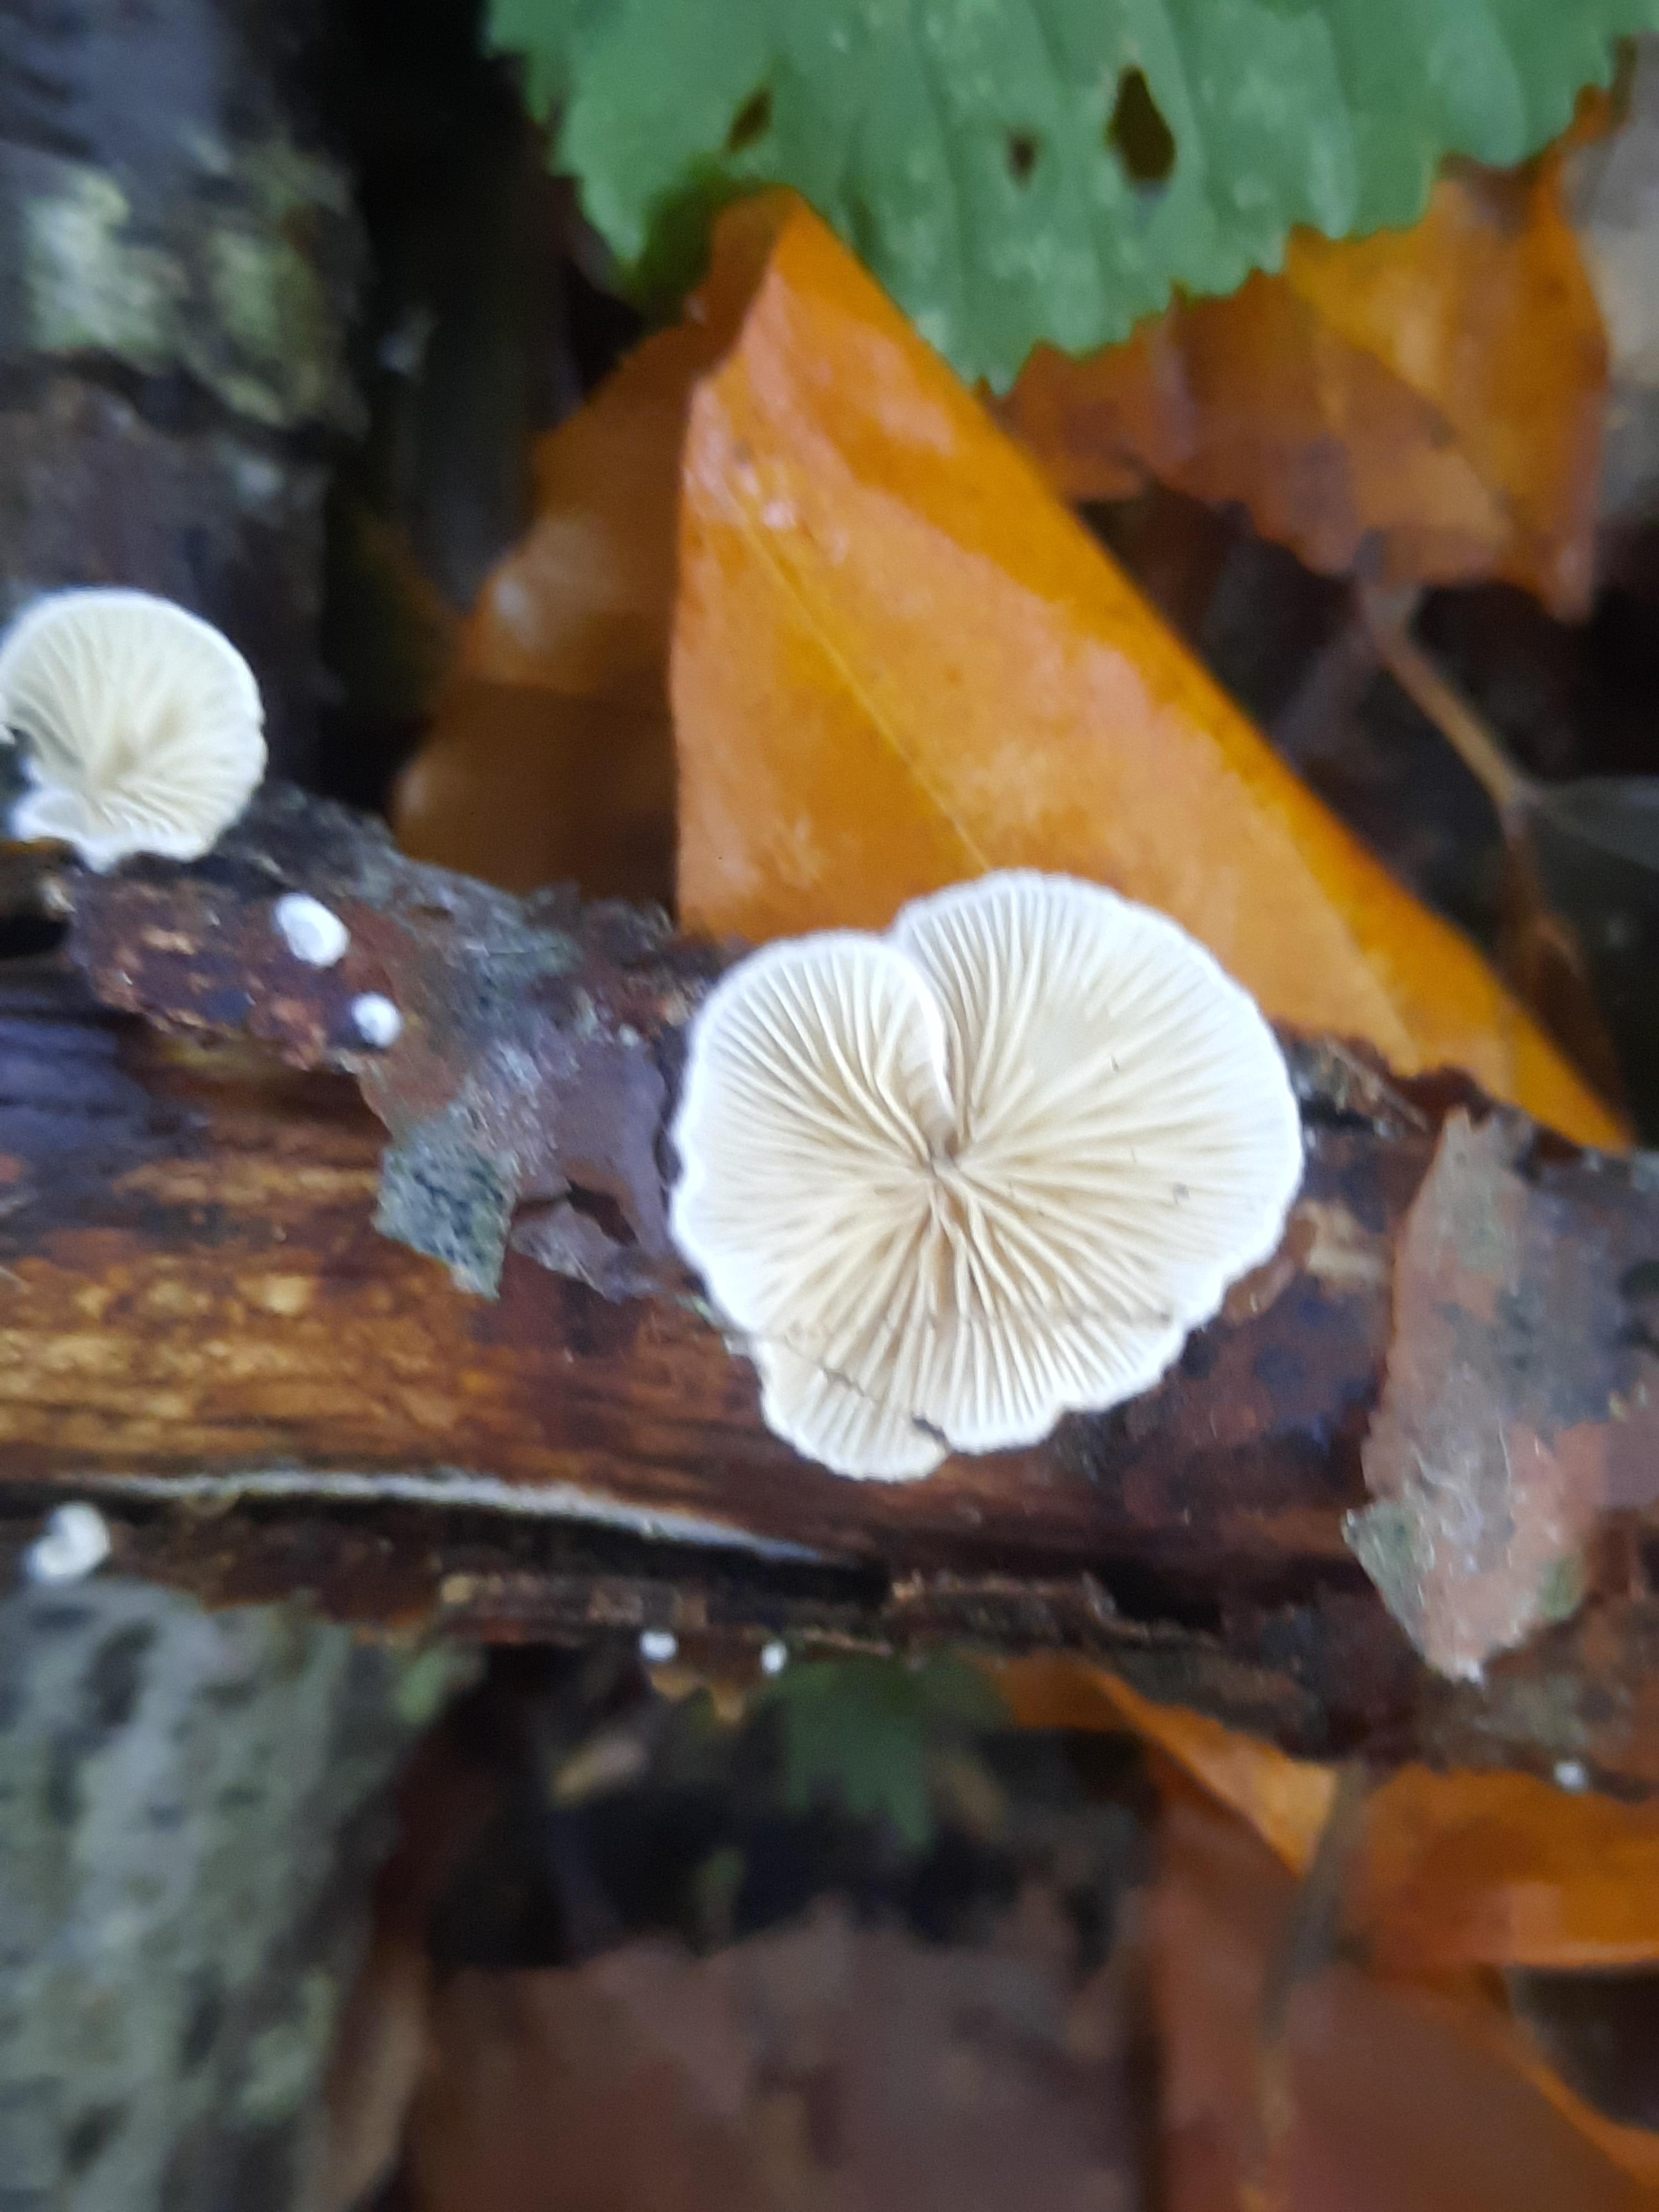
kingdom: Fungi
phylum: Basidiomycota
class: Agaricomycetes
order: Agaricales
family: Crepidotaceae
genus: Crepidotus
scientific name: Crepidotus
